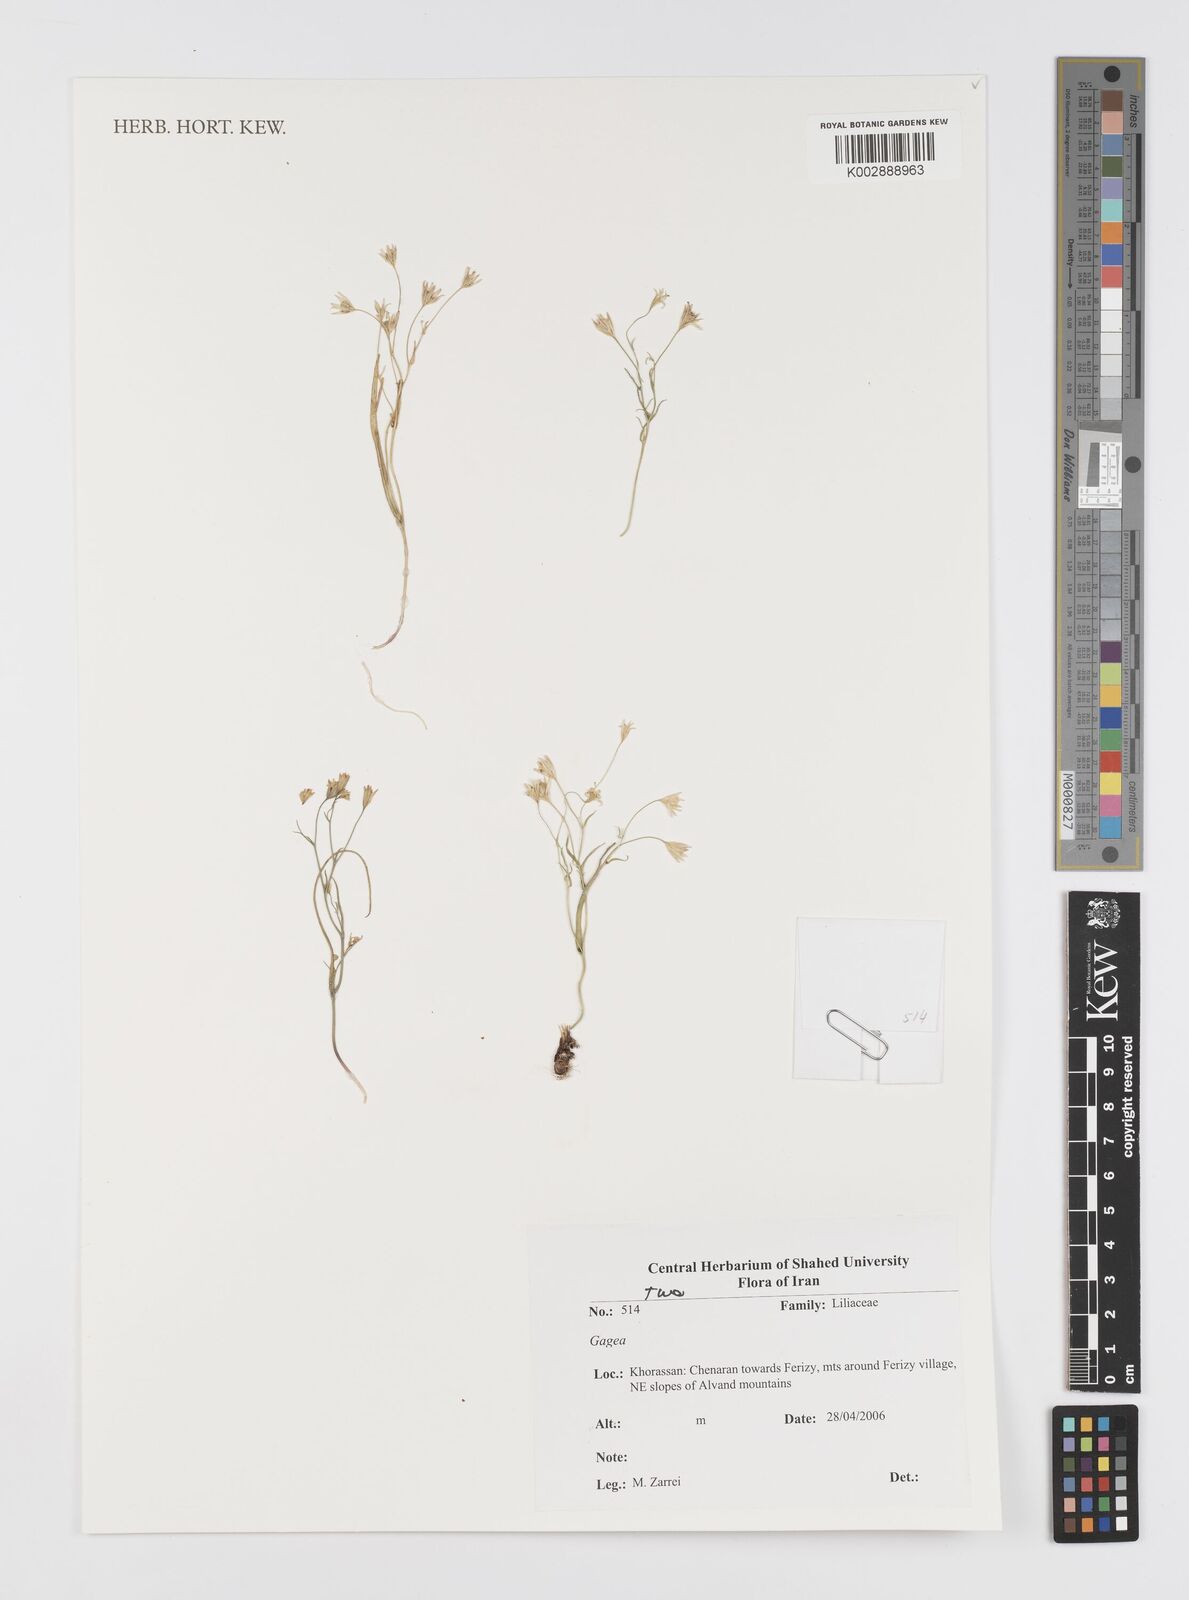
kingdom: Plantae
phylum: Tracheophyta
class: Liliopsida
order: Liliales
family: Liliaceae
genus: Gagea
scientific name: Gagea
